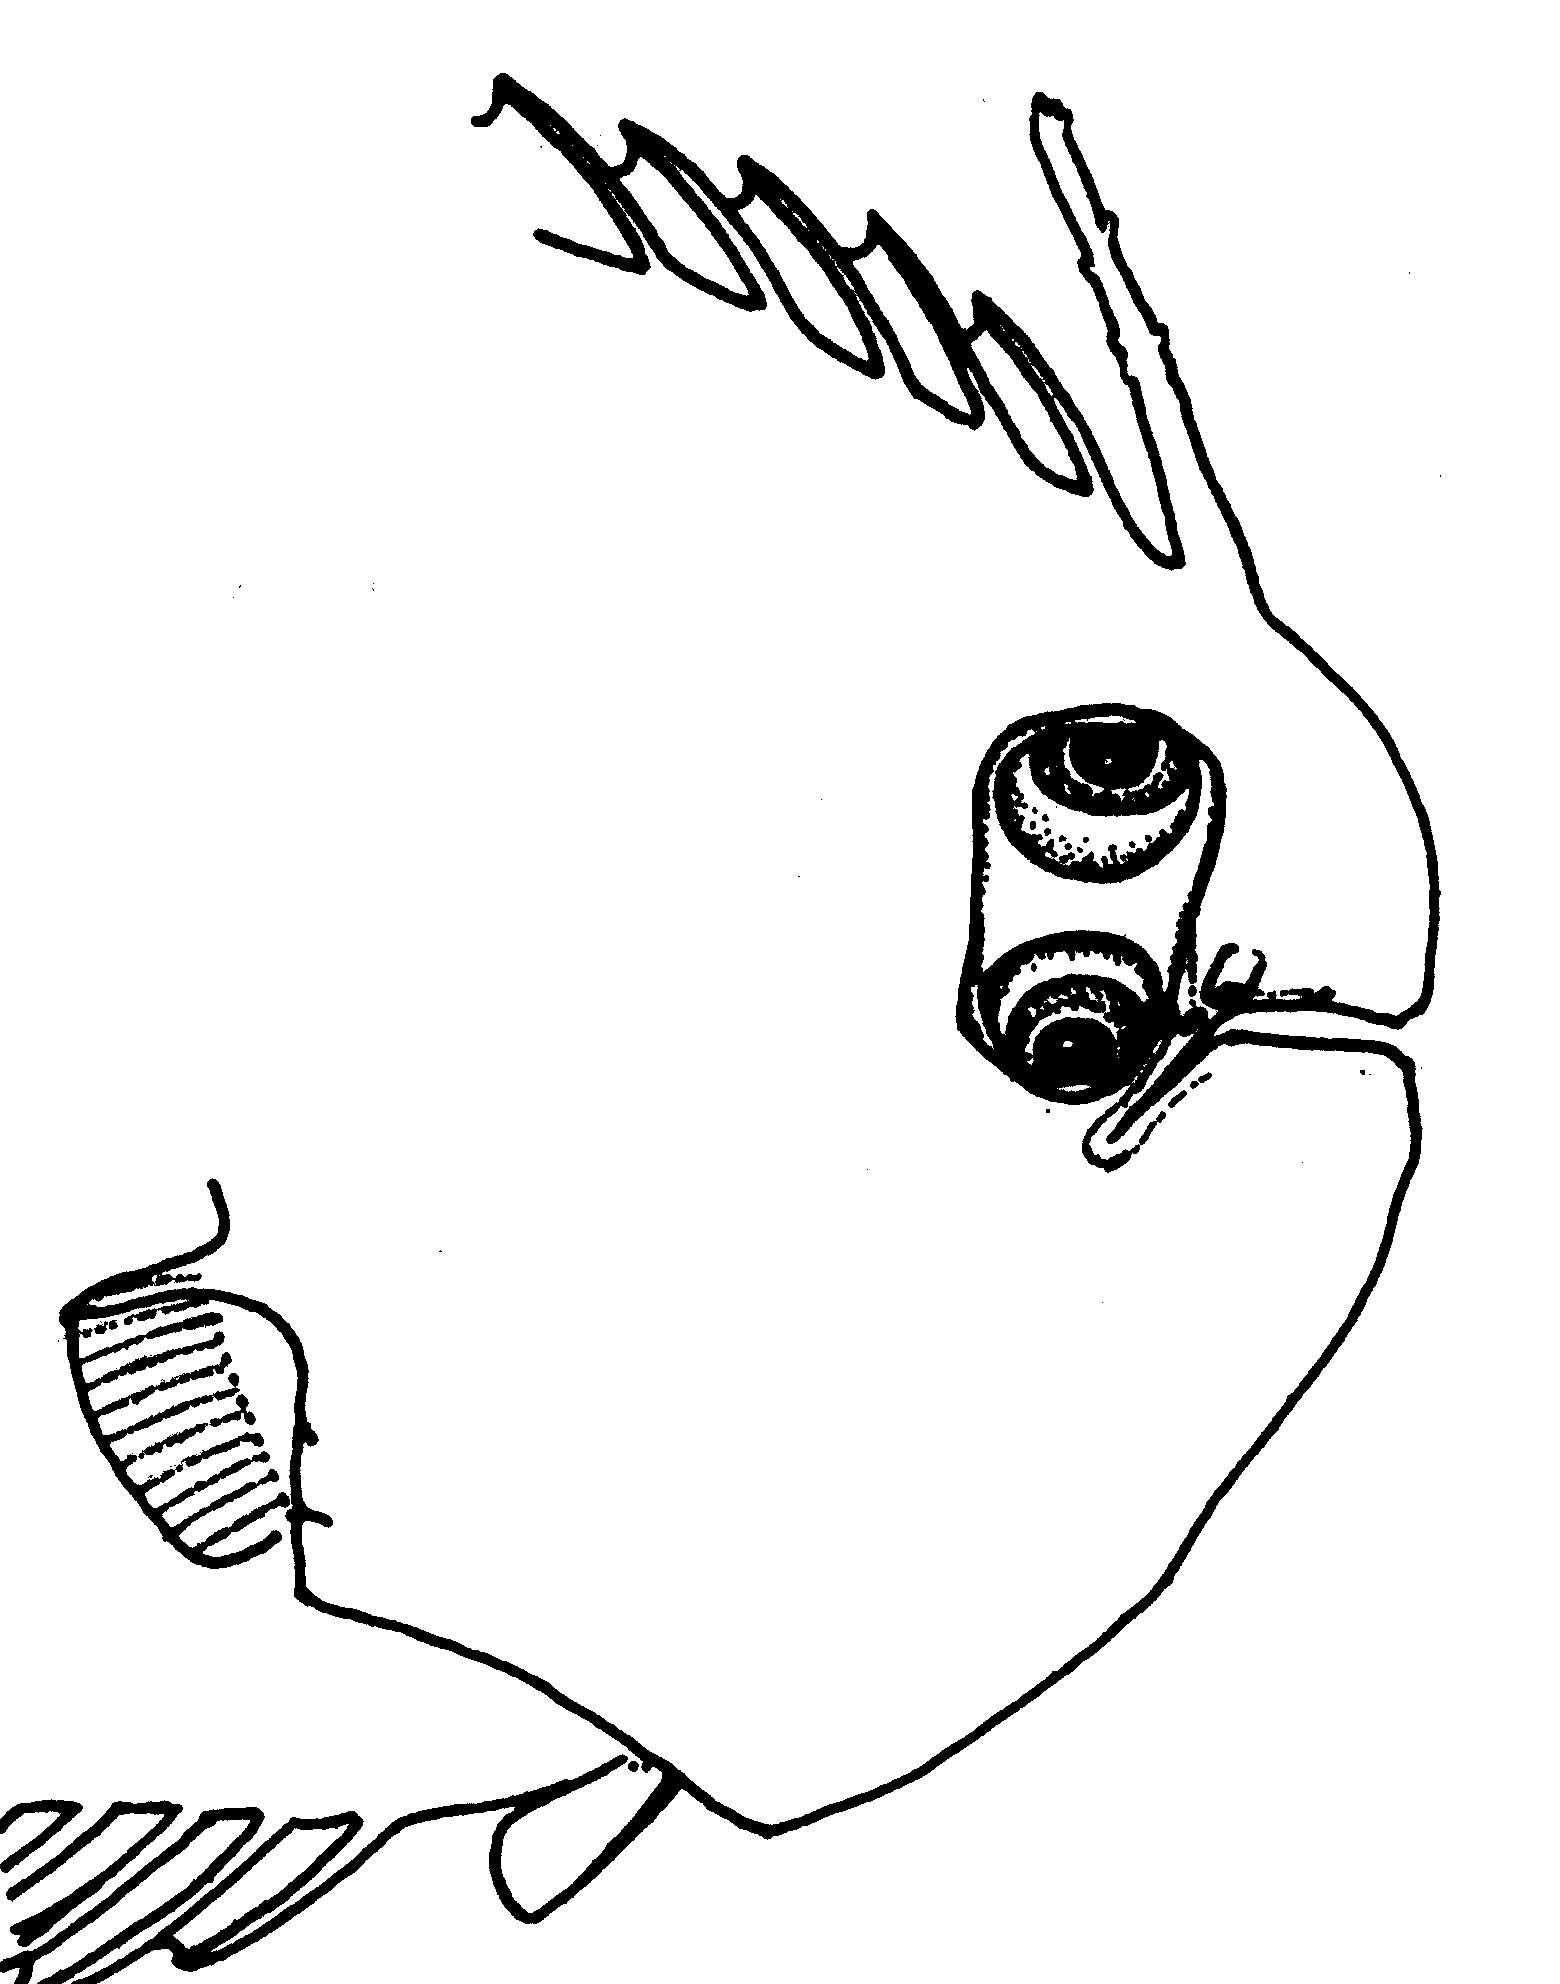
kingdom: Animalia
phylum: Chordata
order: Pleuronectiformes
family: Soleidae
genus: Aesopia
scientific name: Aesopia
